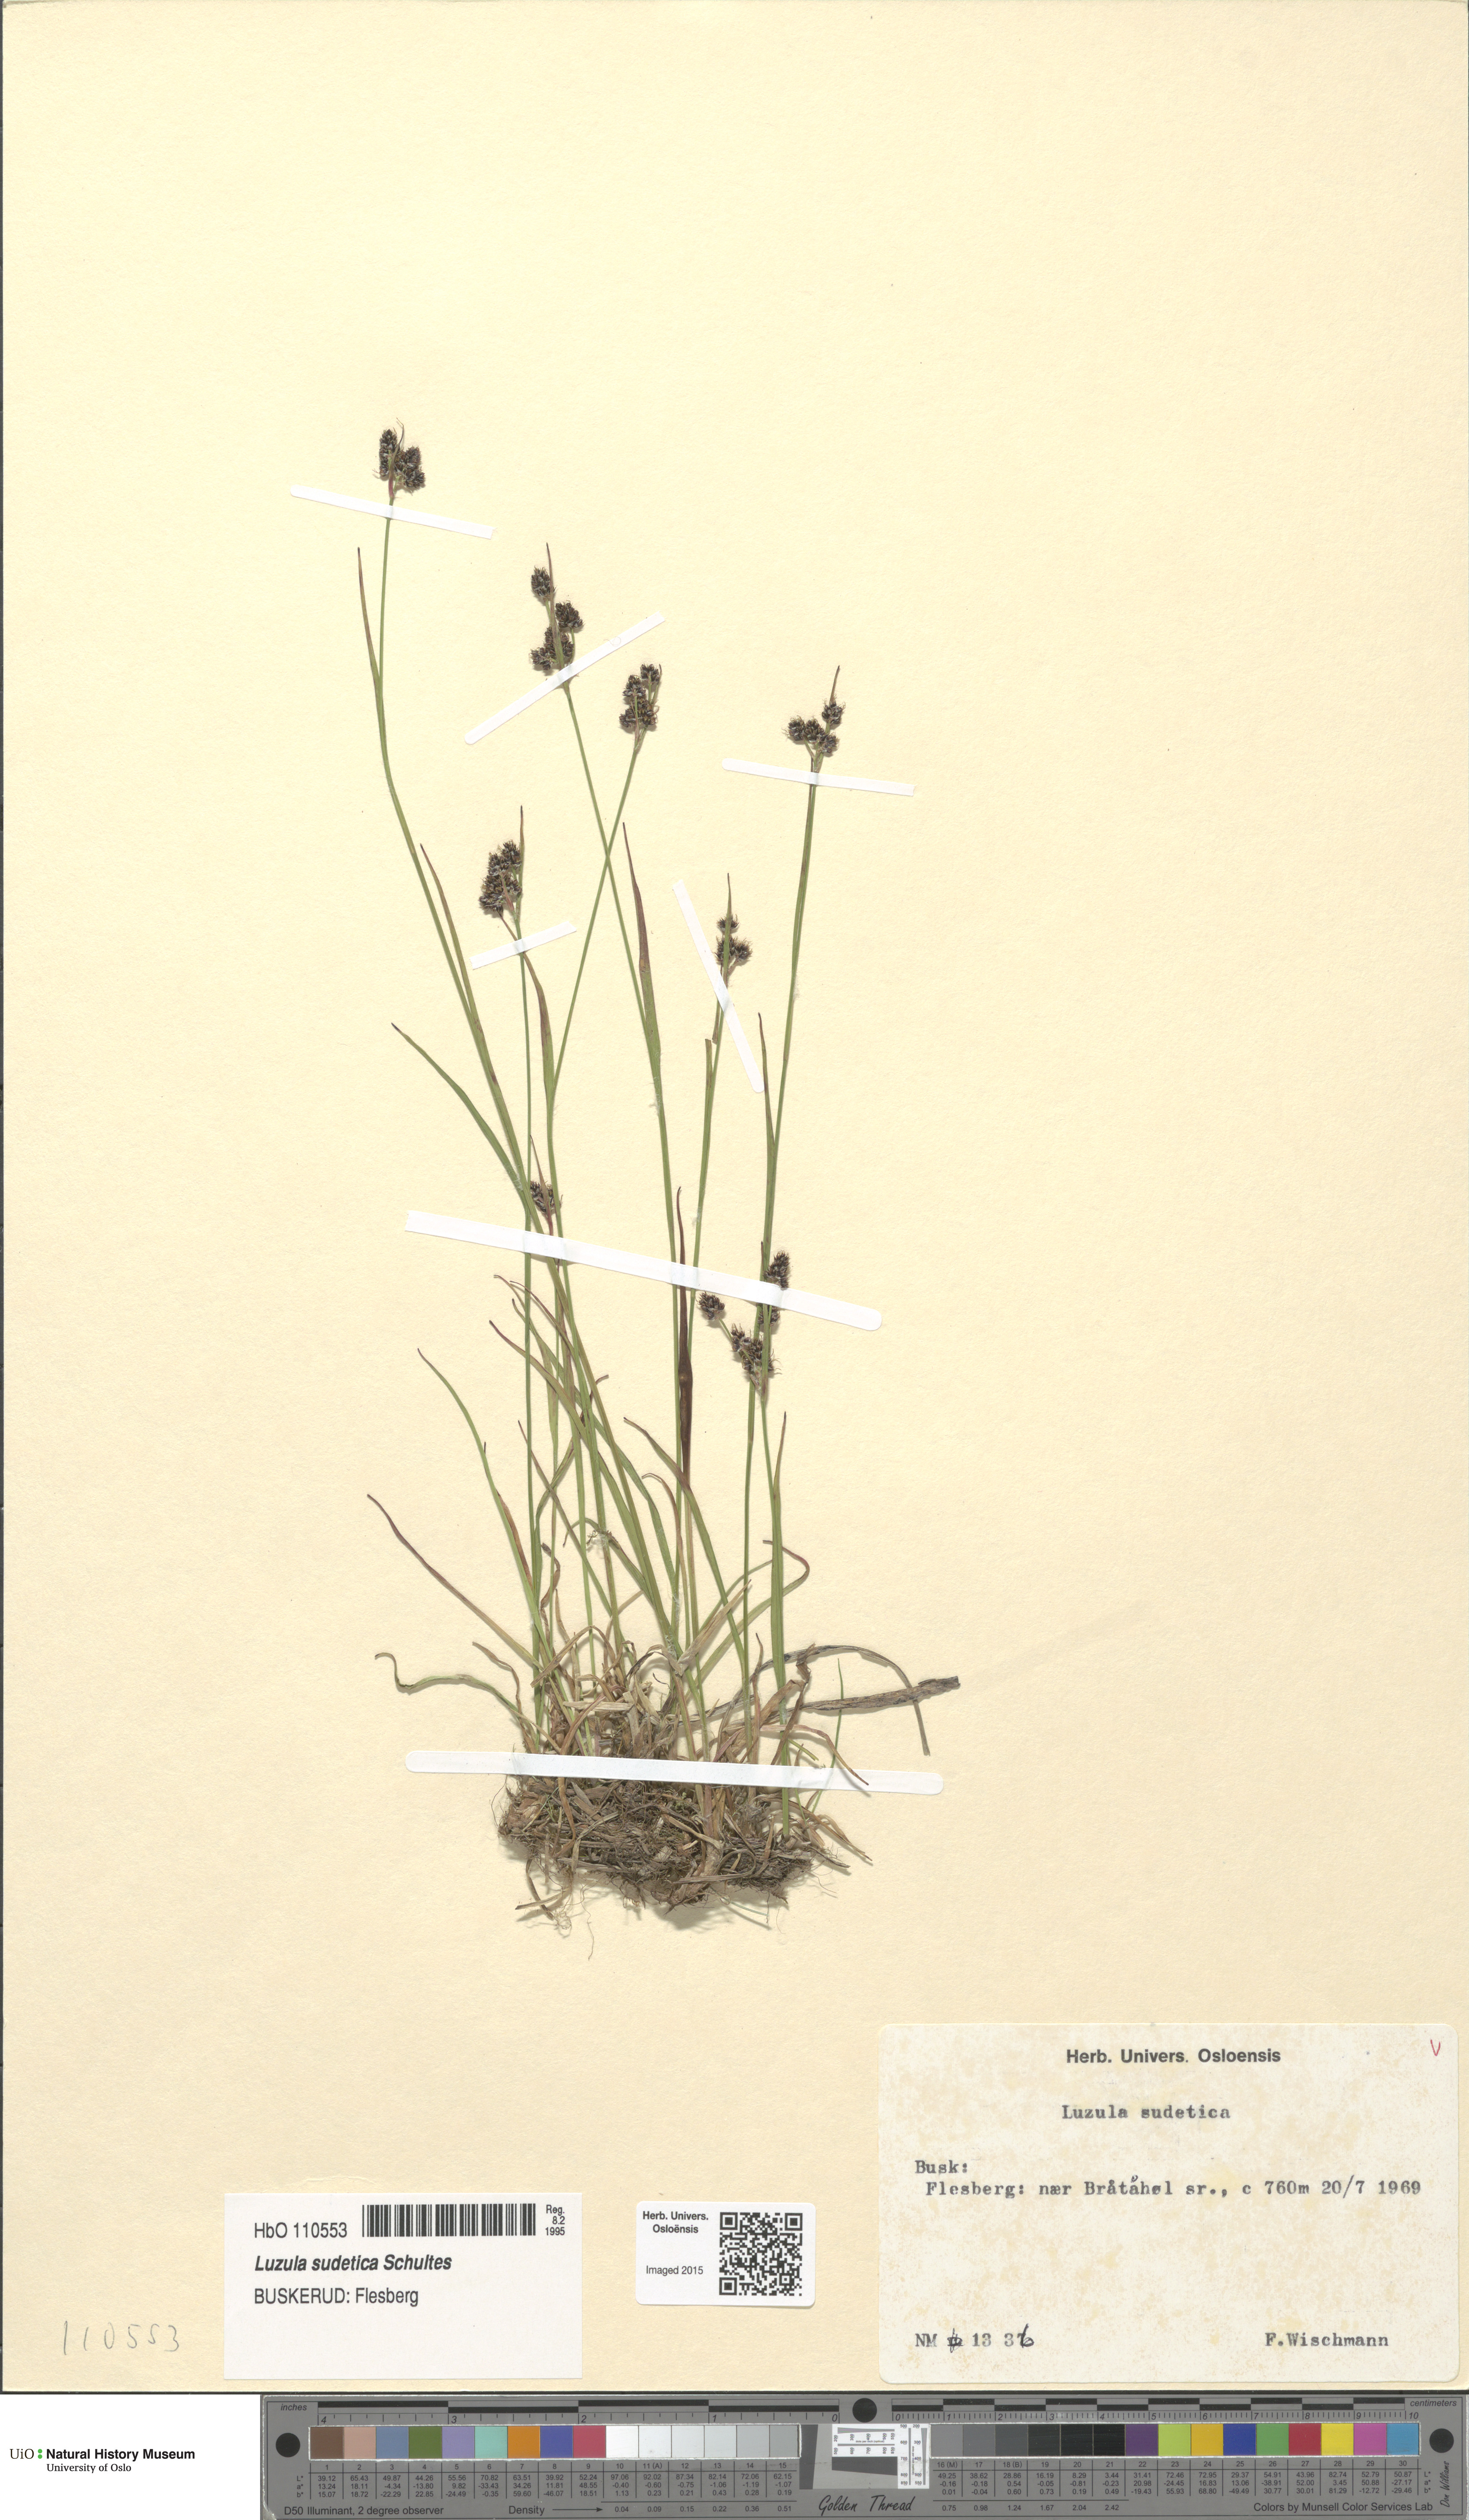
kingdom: Plantae
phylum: Tracheophyta
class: Liliopsida
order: Poales
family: Juncaceae
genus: Luzula
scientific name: Luzula sudetica
